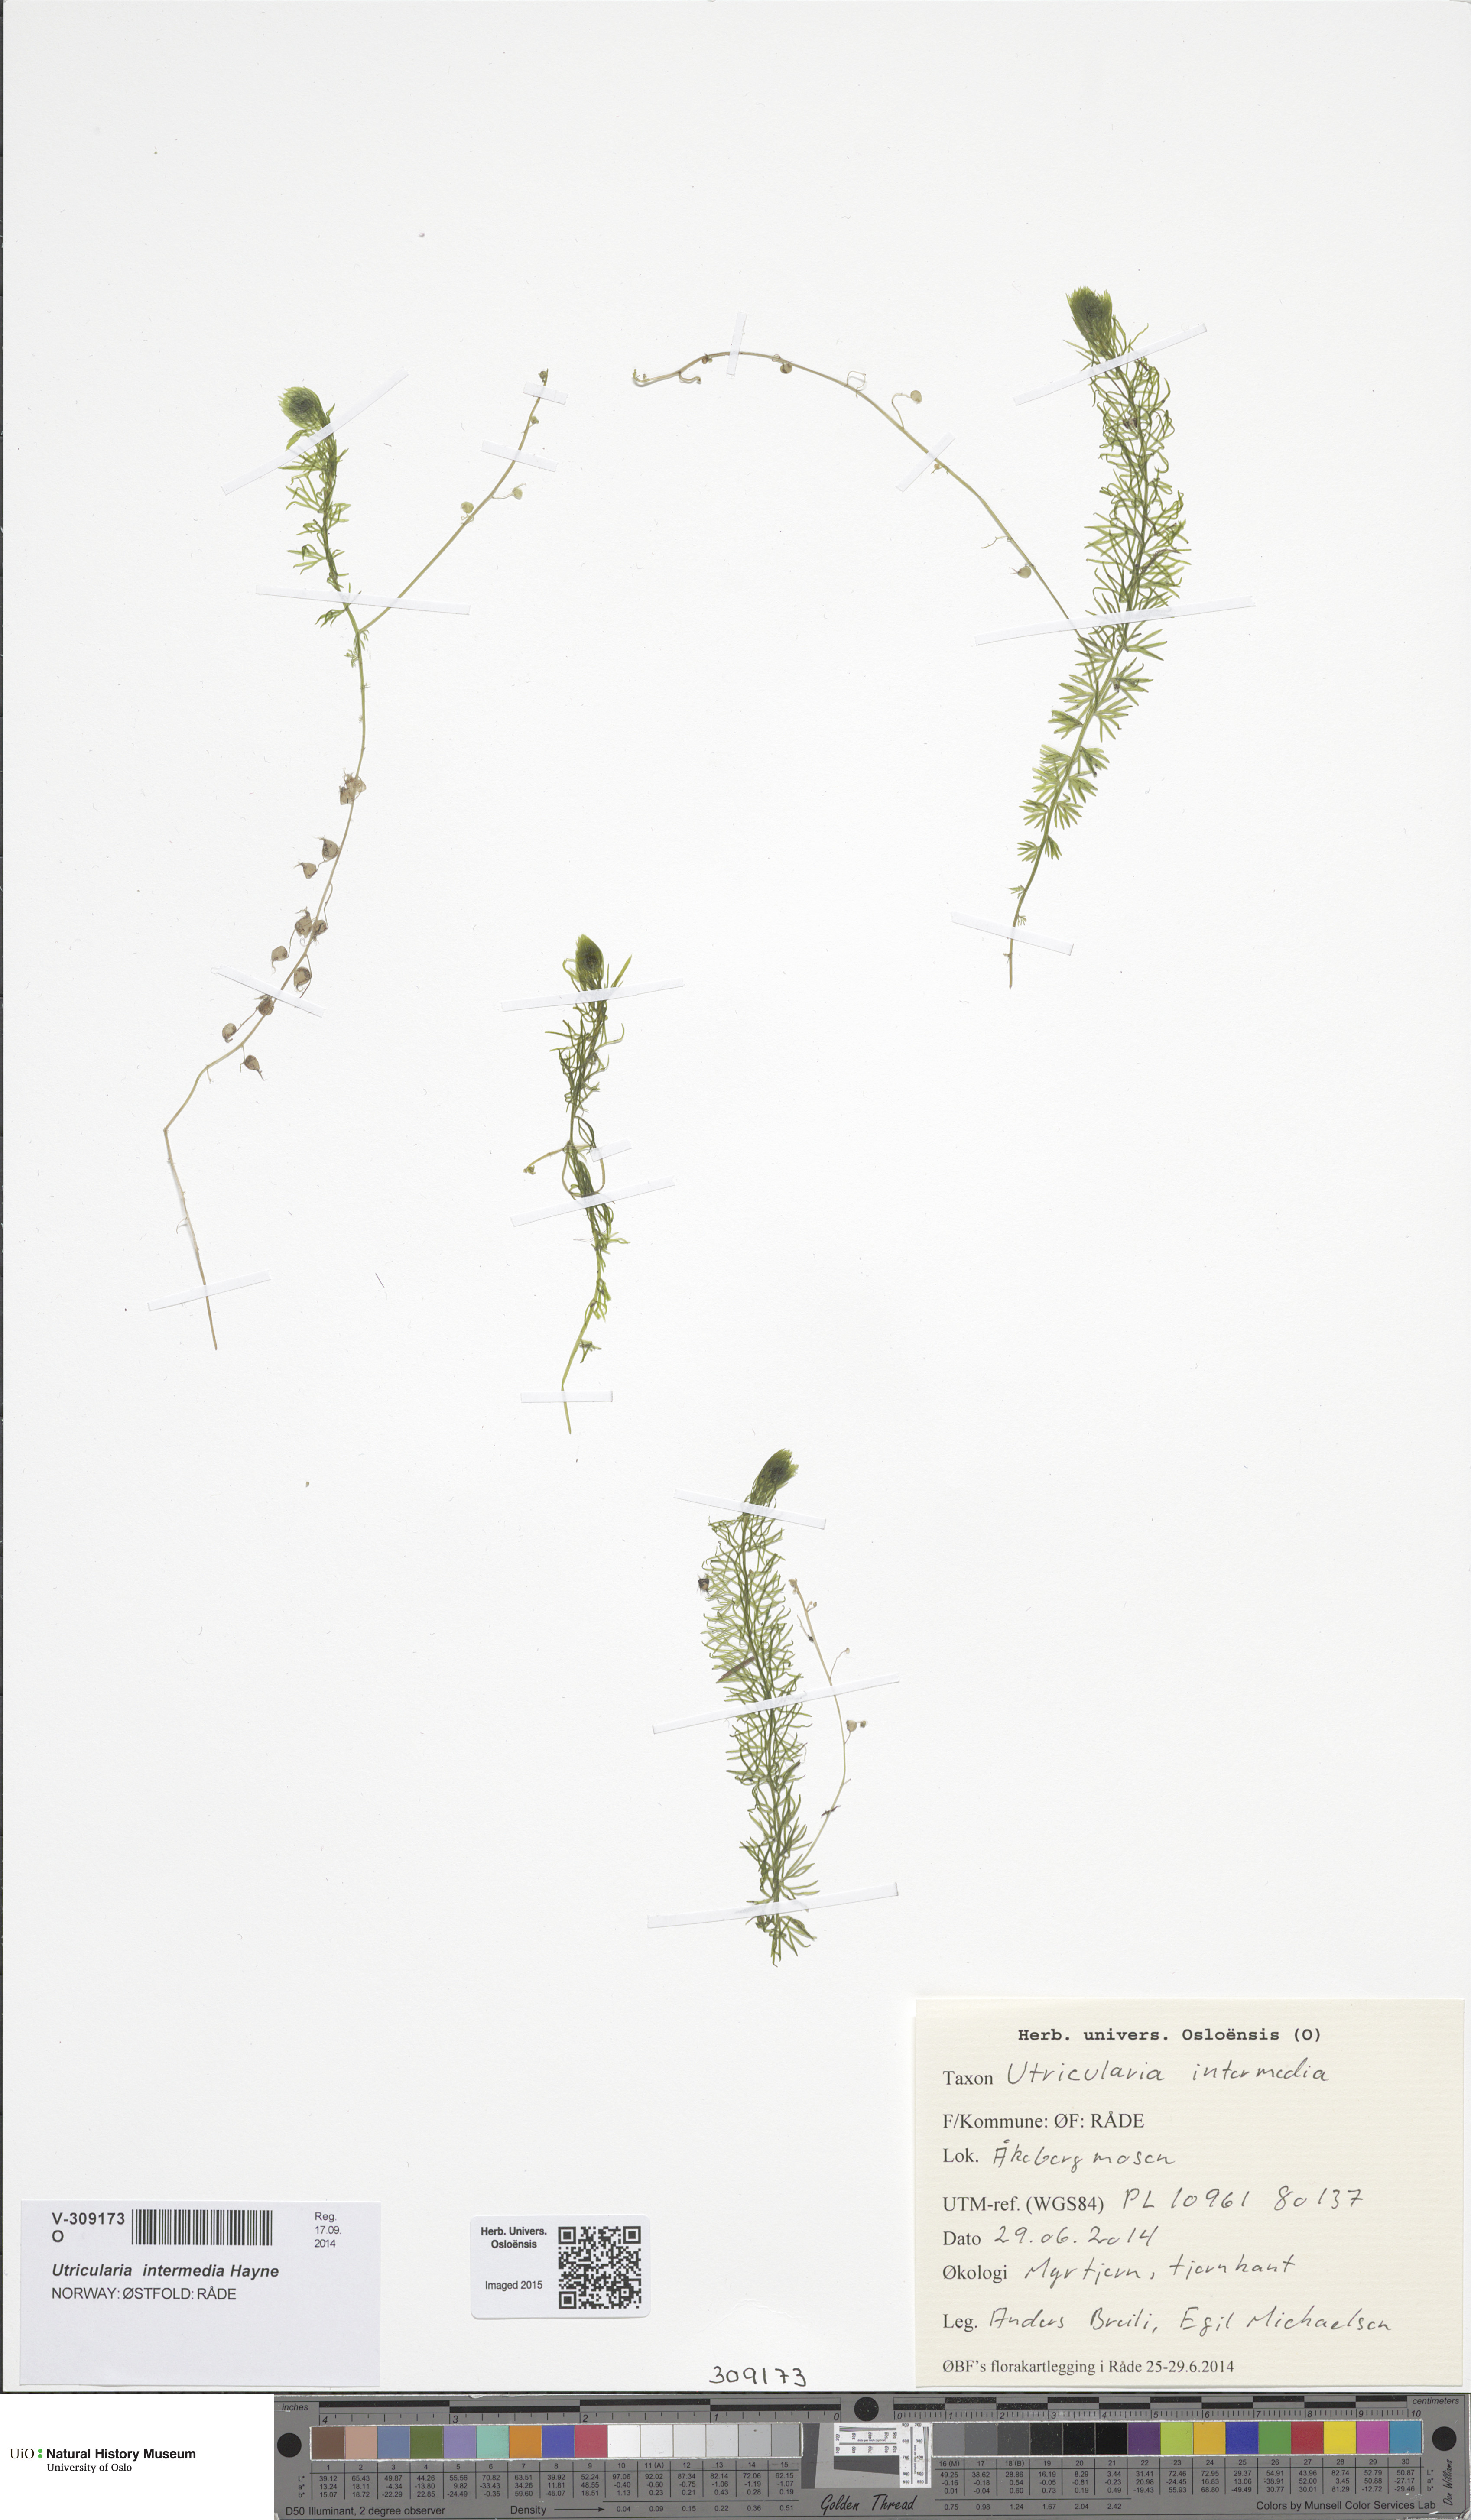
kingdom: Plantae
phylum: Tracheophyta
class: Magnoliopsida
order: Lamiales
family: Lentibulariaceae
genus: Utricularia
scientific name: Utricularia intermedia
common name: Intermediate bladderwort
